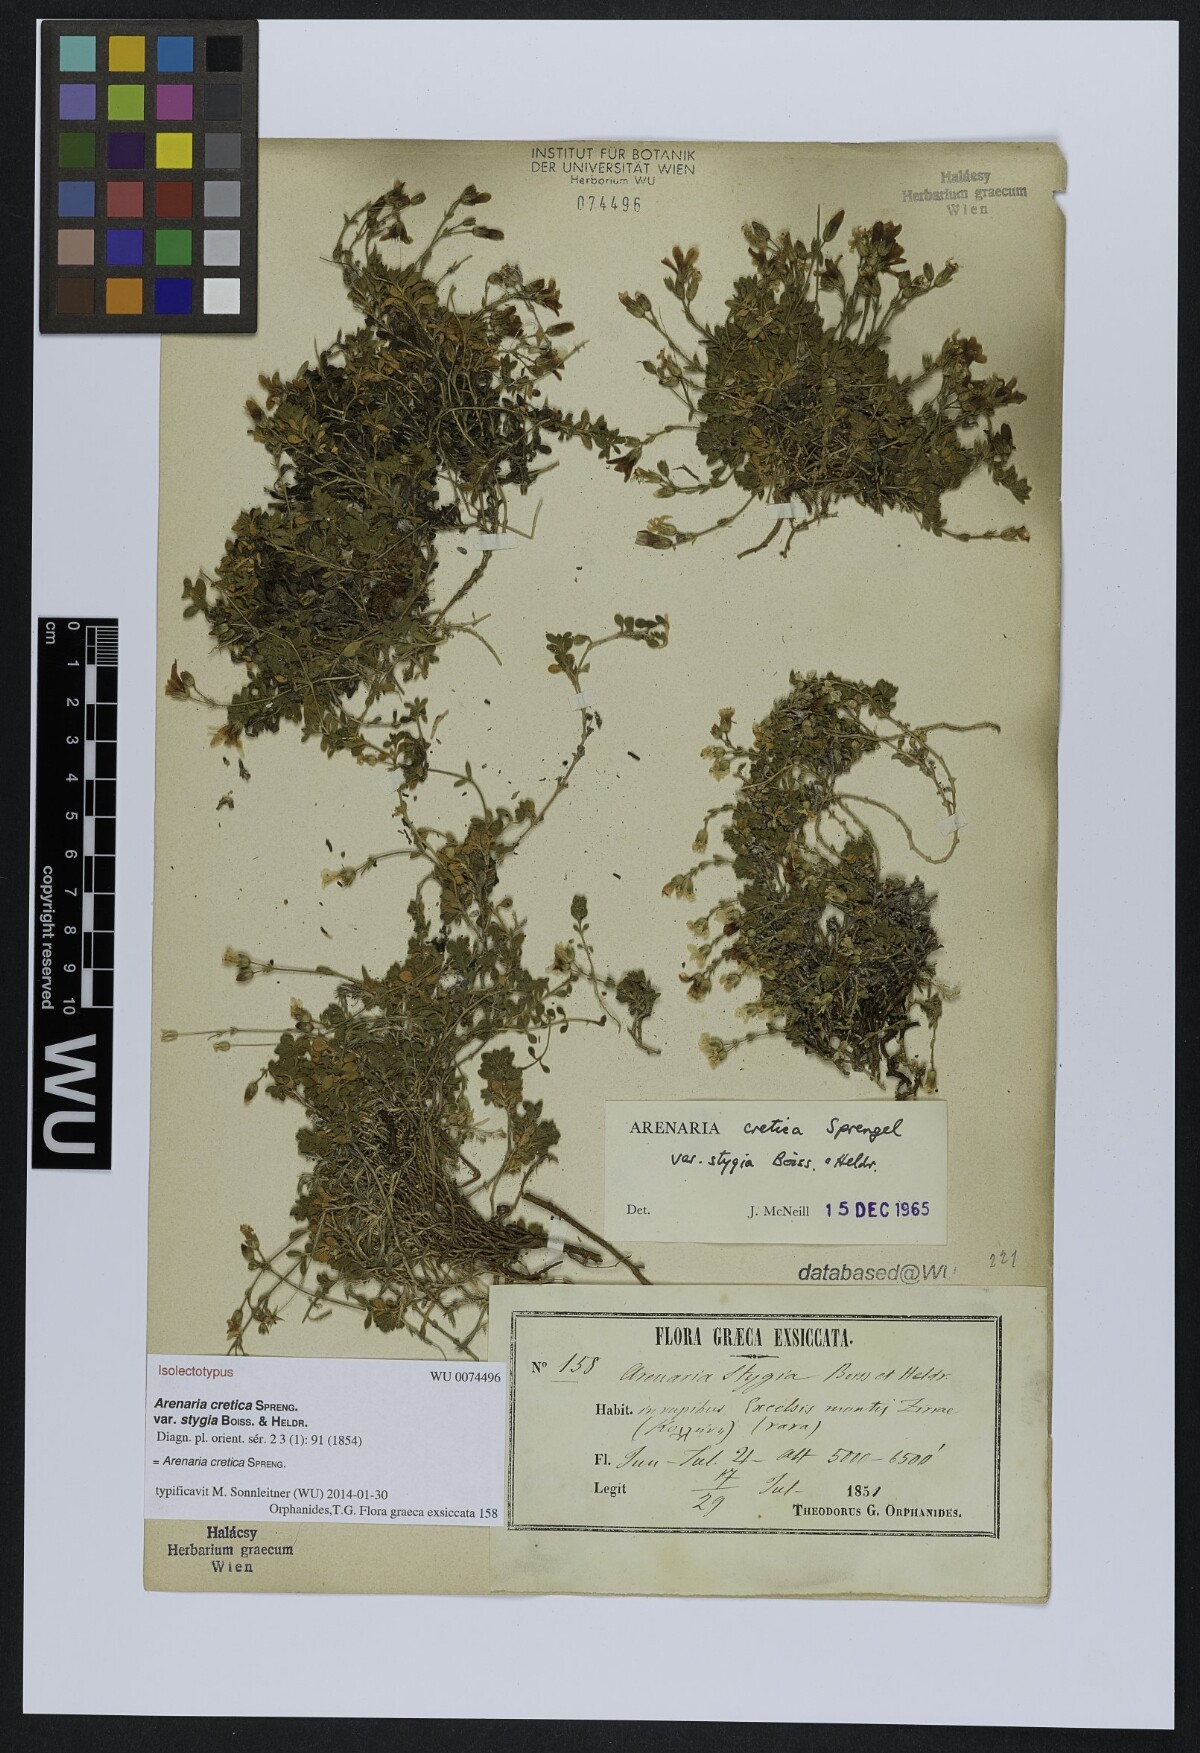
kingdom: Plantae
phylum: Tracheophyta
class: Magnoliopsida
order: Caryophyllales
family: Caryophyllaceae
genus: Arenaria
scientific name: Arenaria cretica
